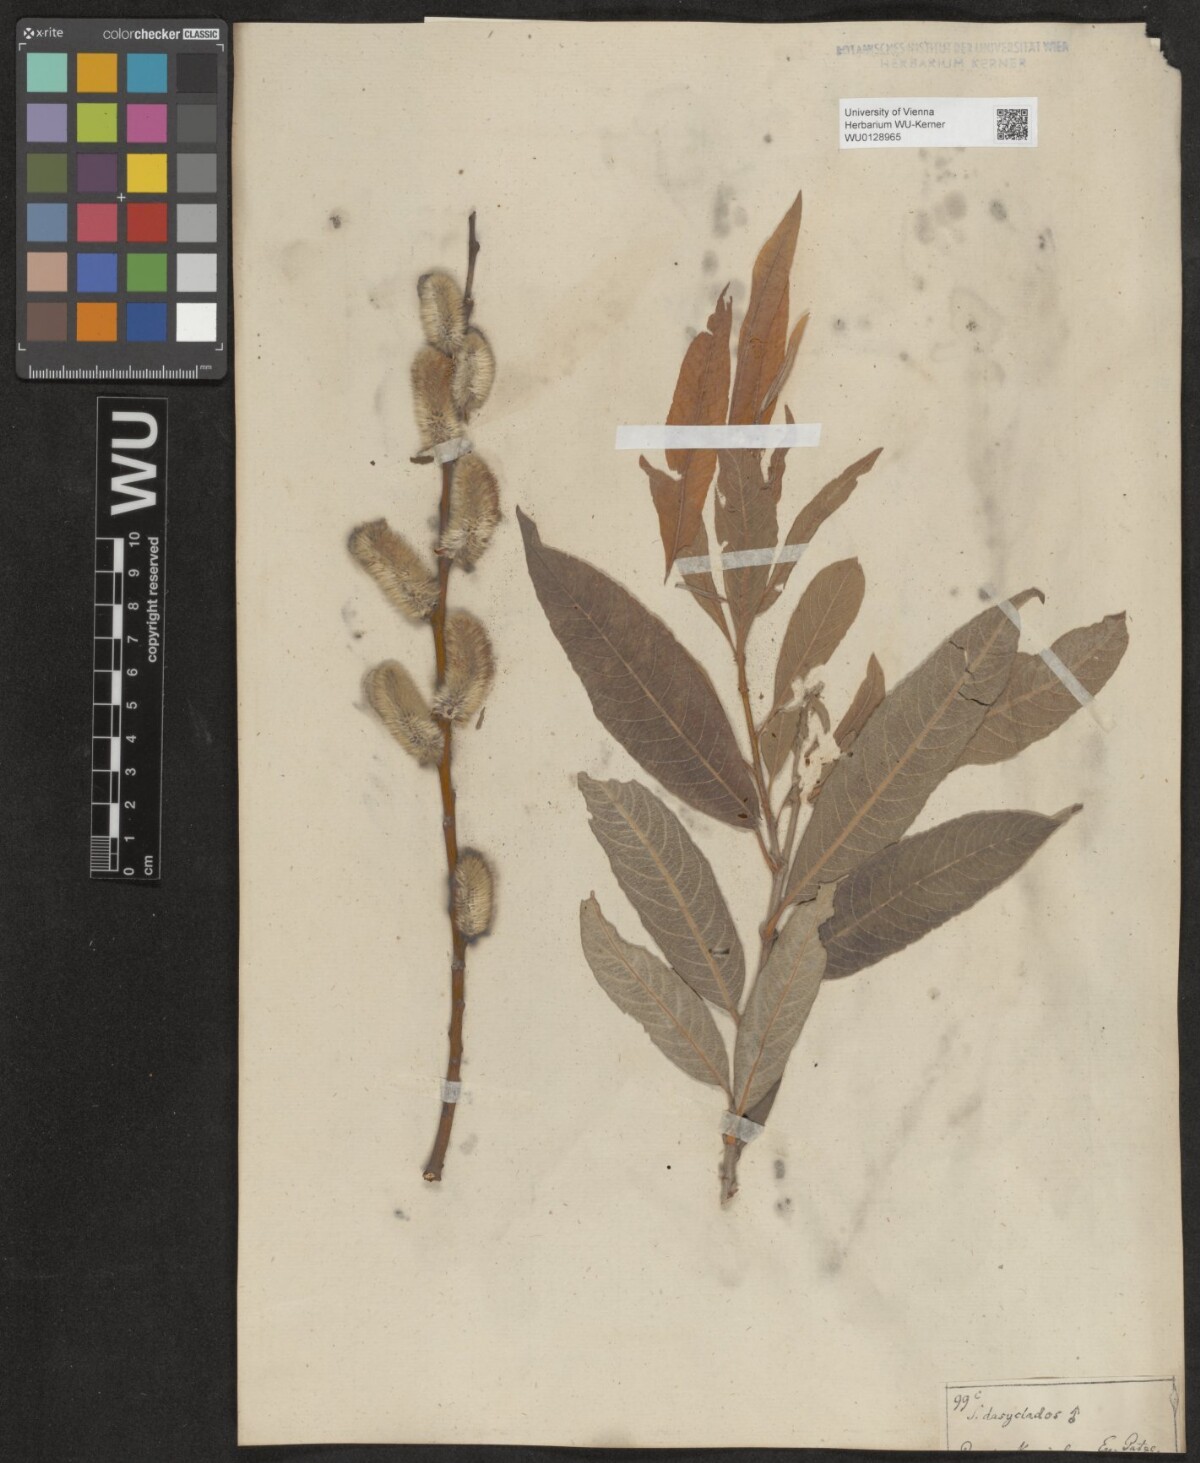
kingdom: Plantae
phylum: Tracheophyta
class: Magnoliopsida
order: Malpighiales
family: Salicaceae
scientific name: Salicaceae
